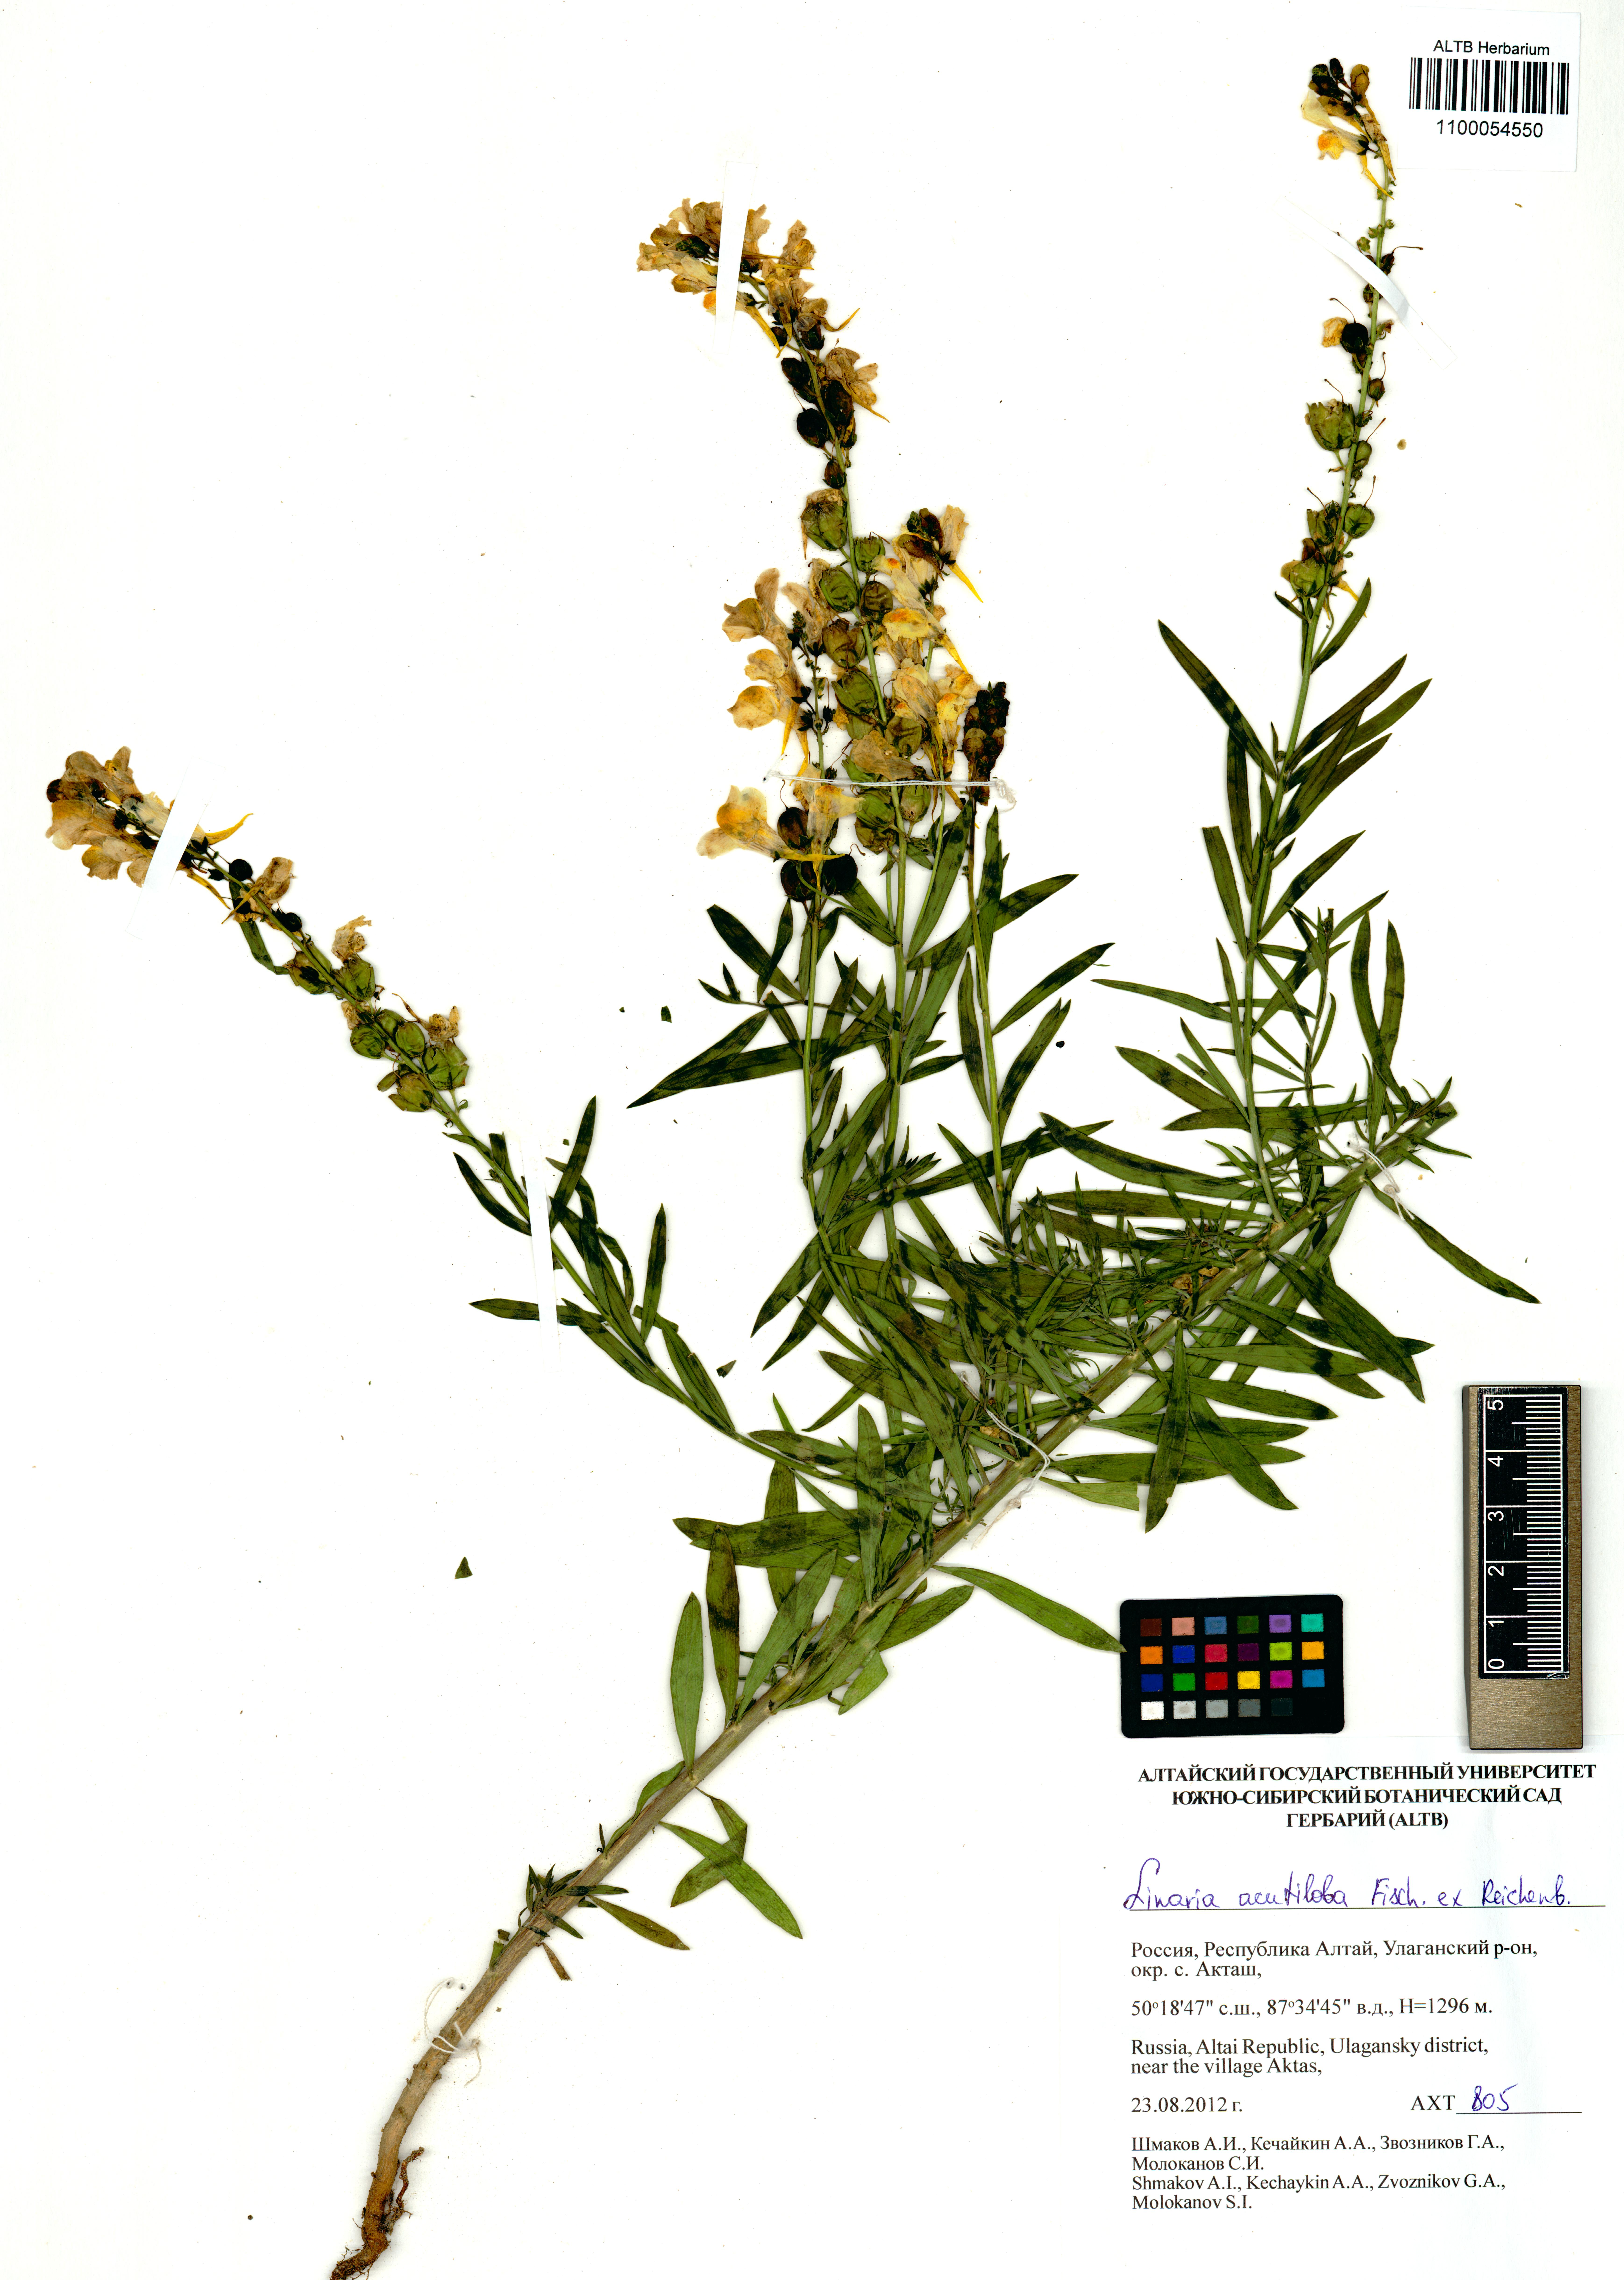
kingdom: Plantae
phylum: Tracheophyta
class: Magnoliopsida
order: Lamiales
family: Plantaginaceae
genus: Linaria
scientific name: Linaria acutiloba
